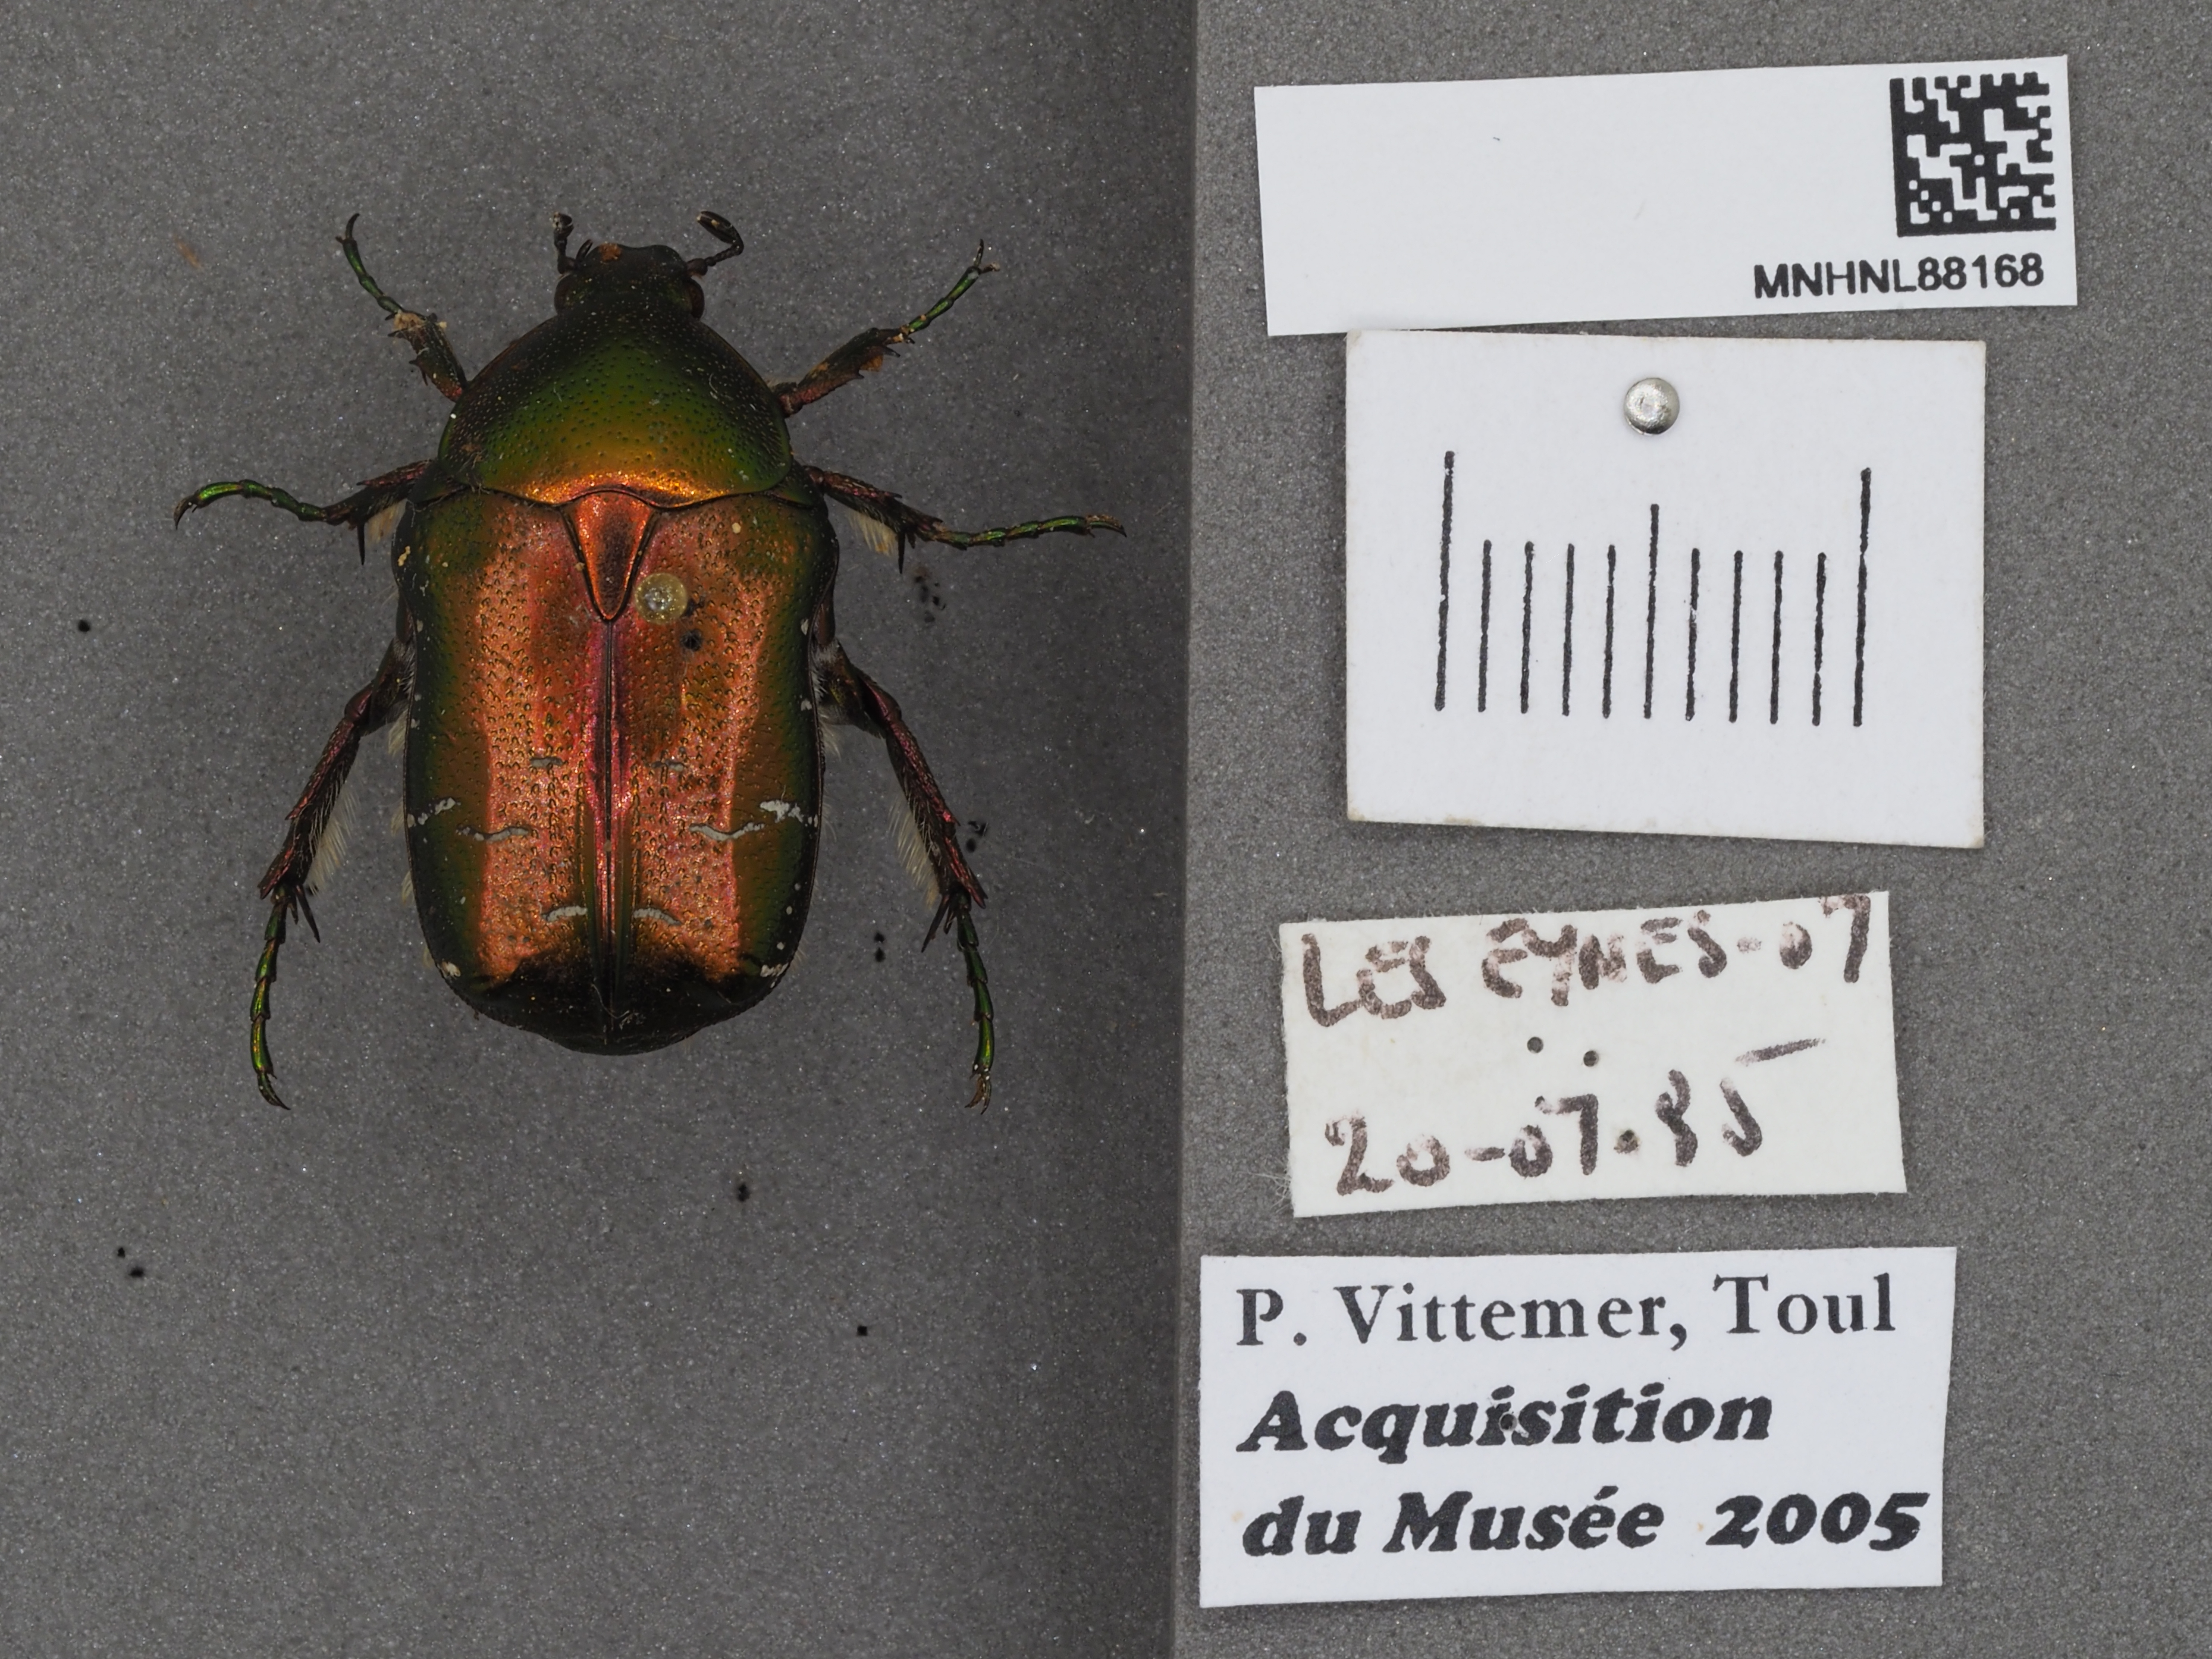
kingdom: Animalia
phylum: Arthropoda
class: Insecta
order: Coleoptera
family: Scarabaeidae
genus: Cetonia
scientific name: Cetonia aurata
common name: Rose chafer
